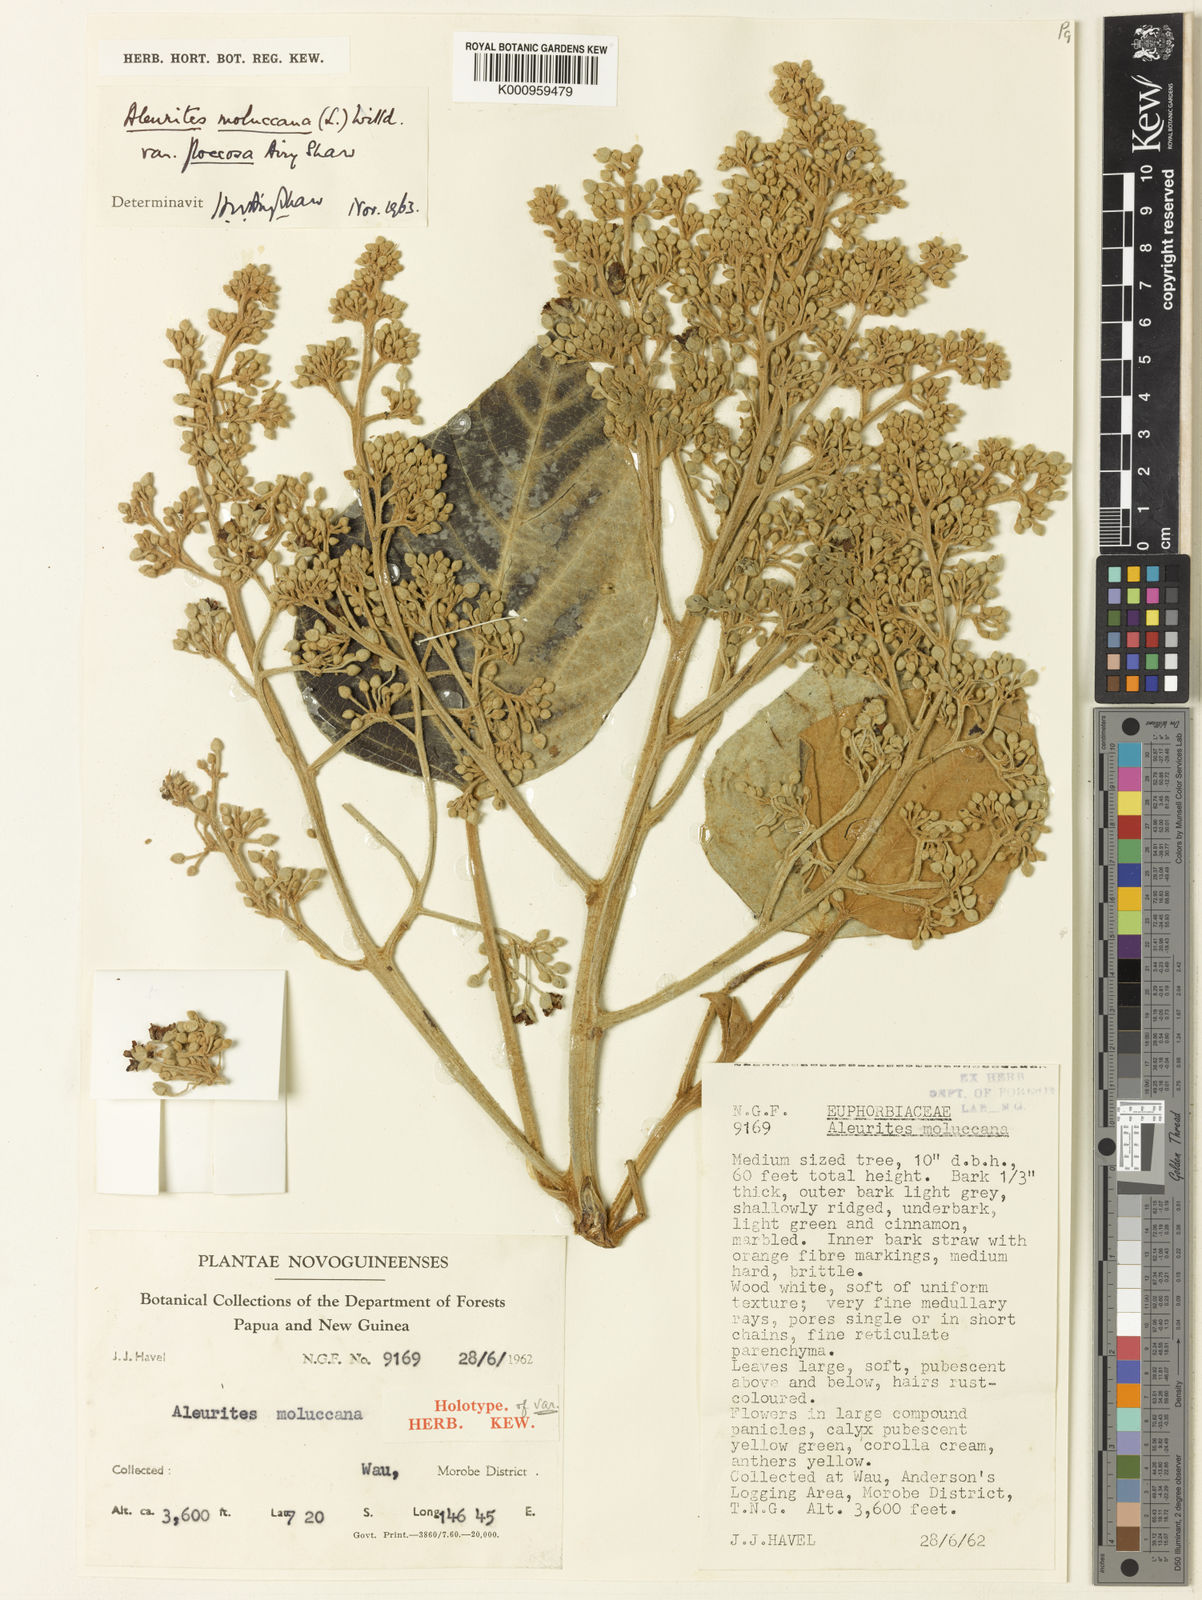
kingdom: Plantae
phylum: Tracheophyta
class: Magnoliopsida
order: Malpighiales
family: Euphorbiaceae
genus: Aleurites
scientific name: Aleurites moluccanus
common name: Candlenut tree
